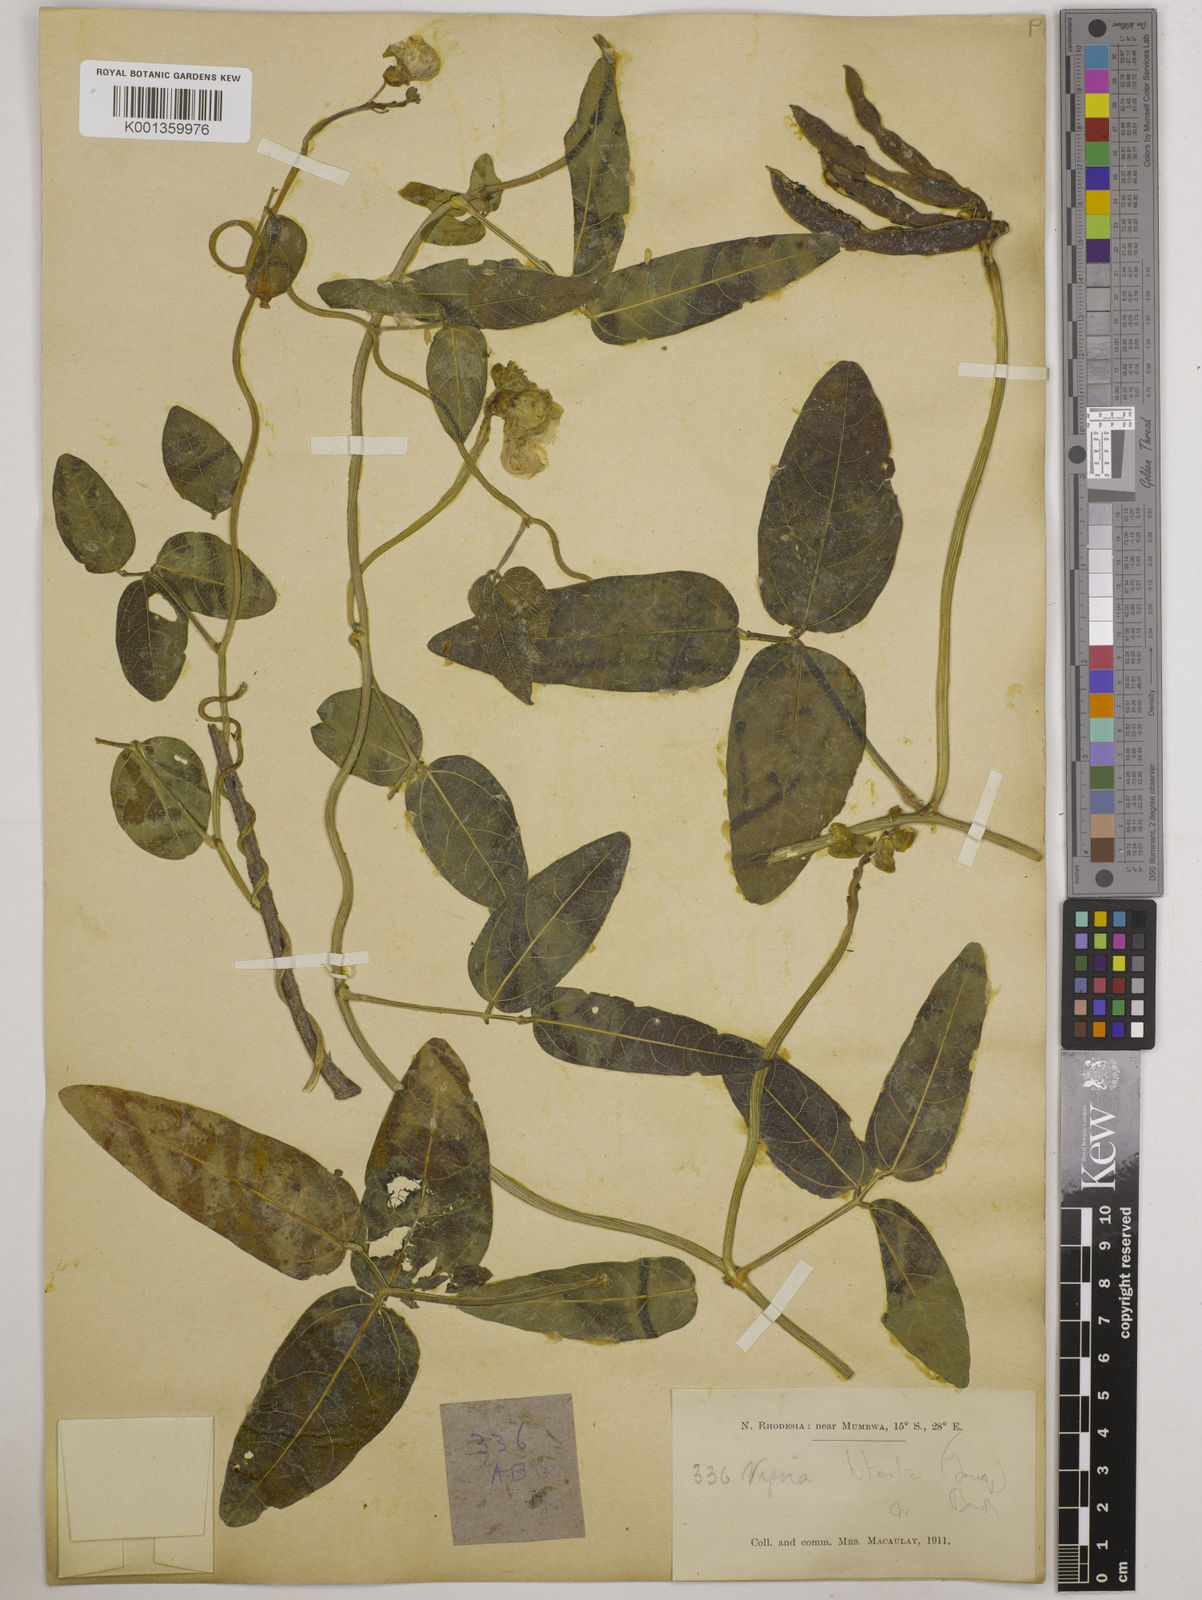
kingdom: Plantae
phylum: Tracheophyta
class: Magnoliopsida
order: Fabales
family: Fabaceae
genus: Vigna
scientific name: Vigna luteola
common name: Hairypod cowpea
